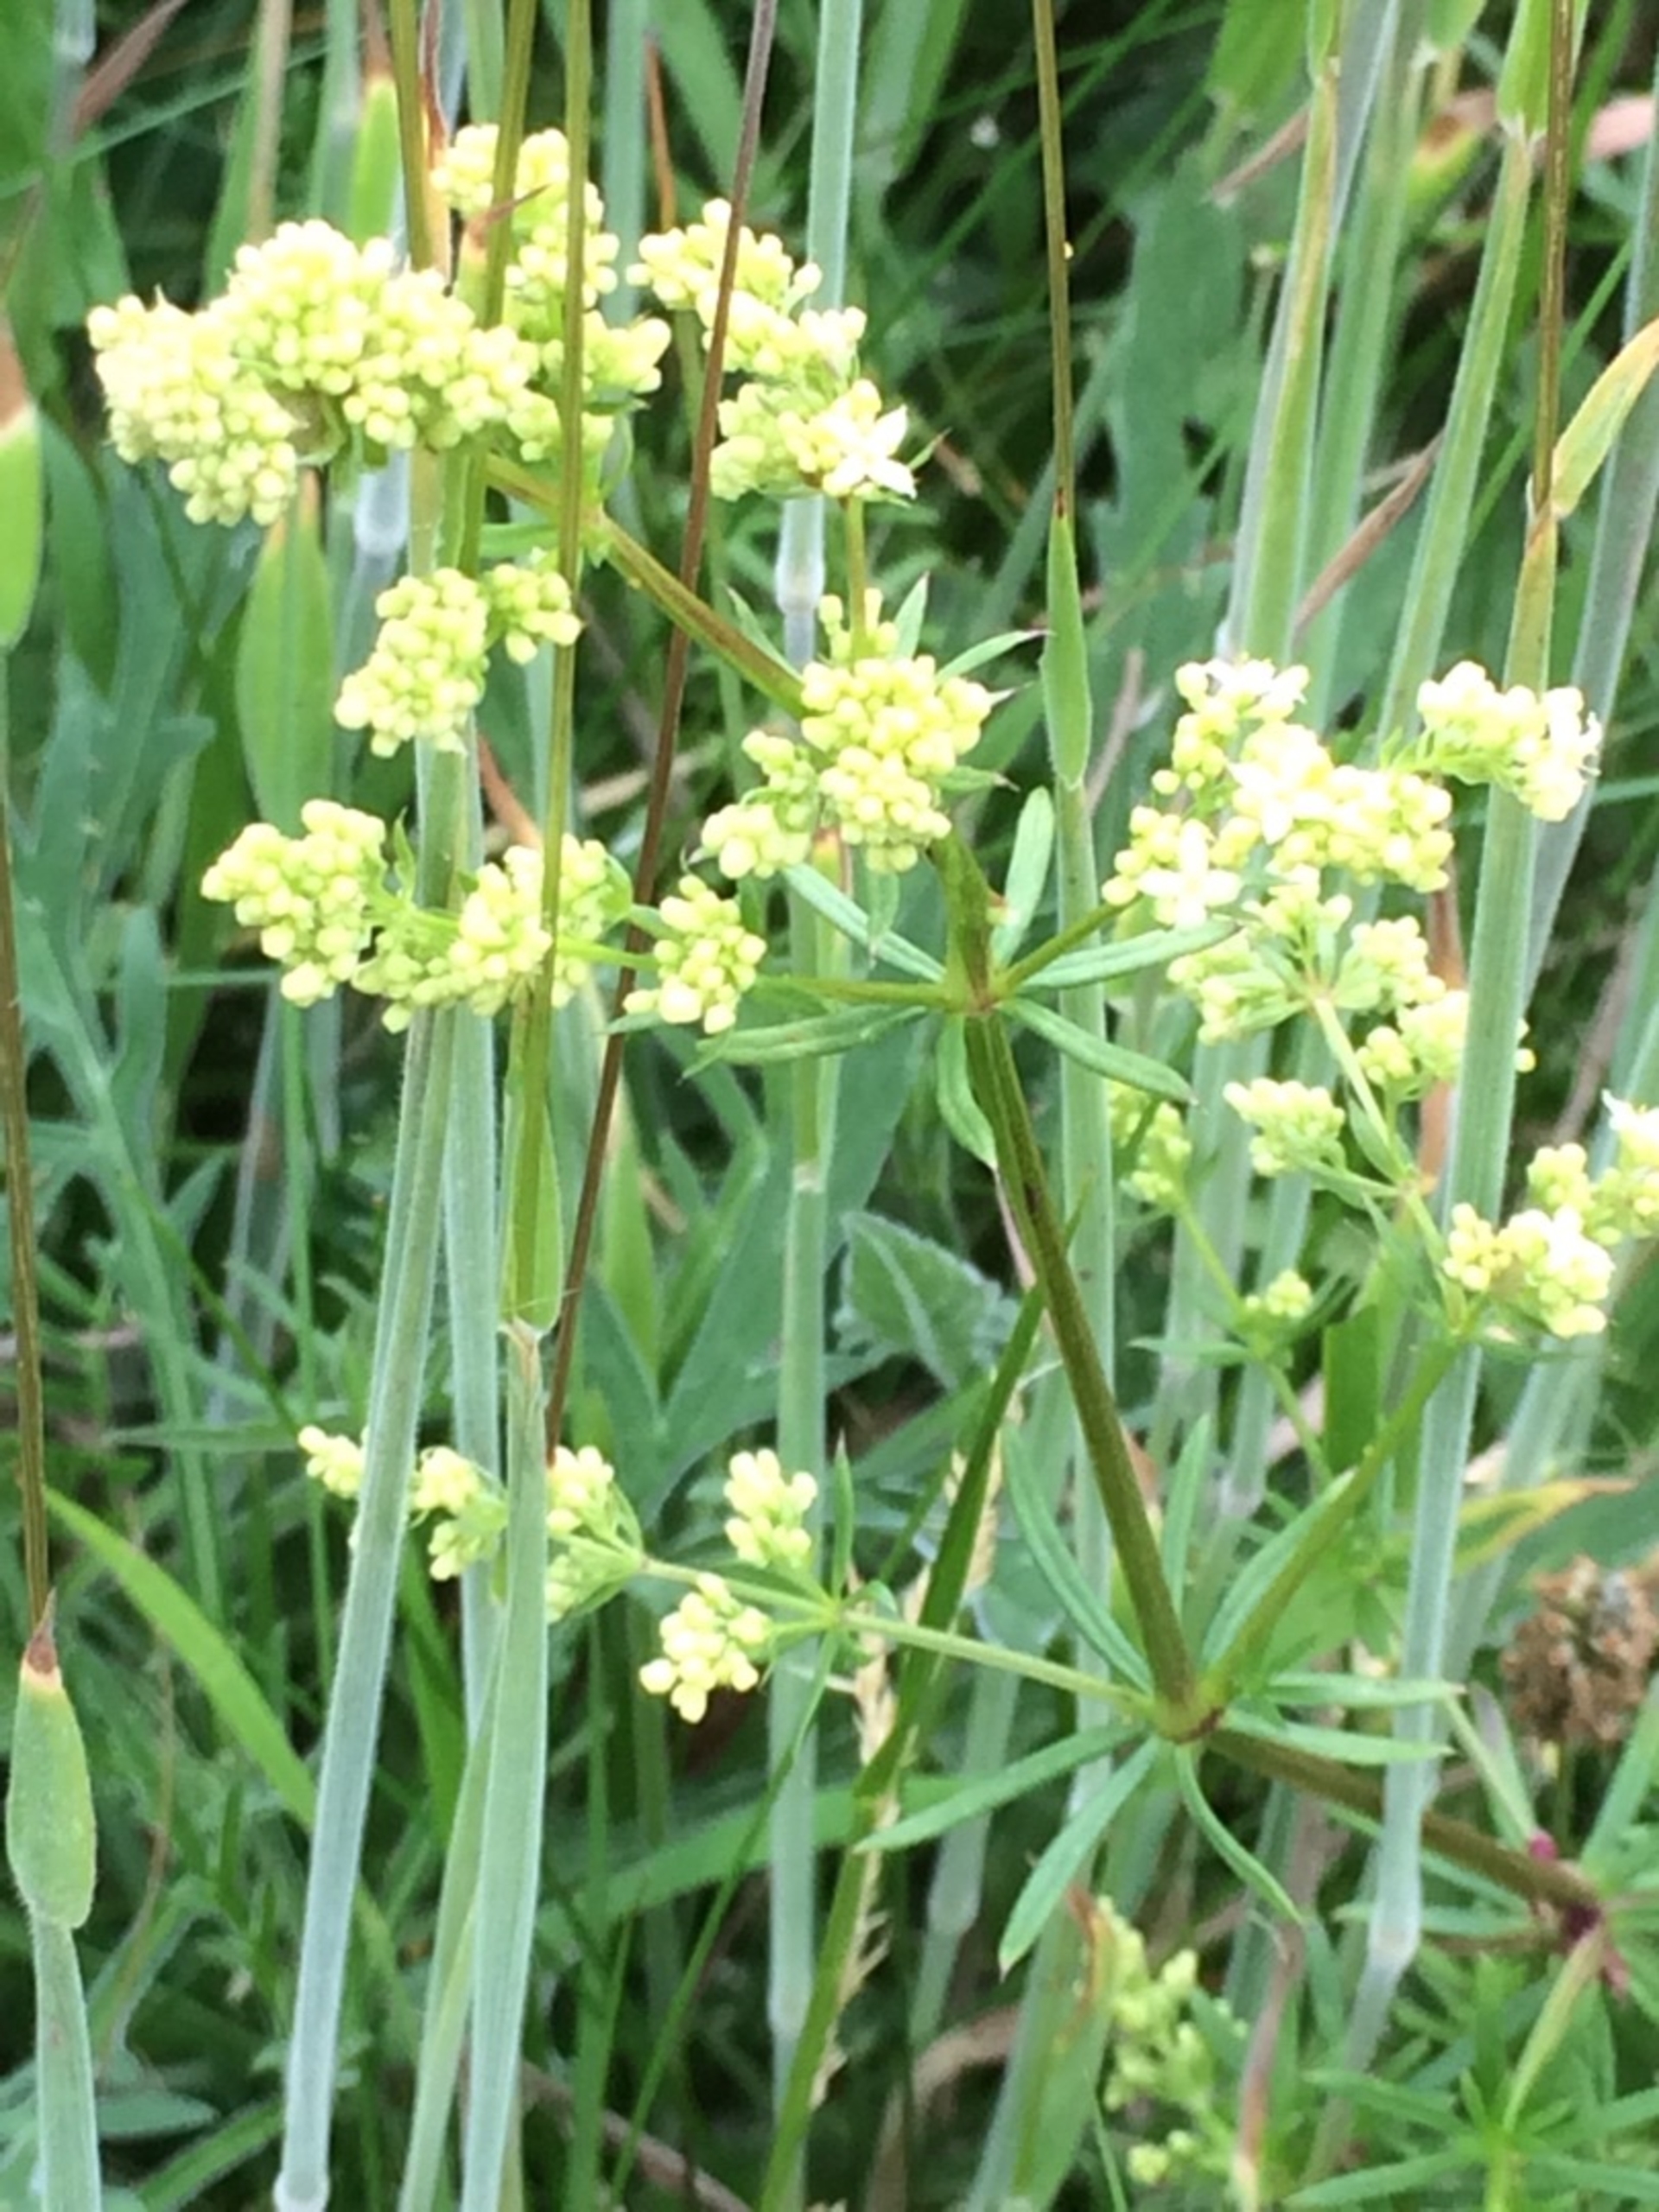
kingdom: Plantae
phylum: Tracheophyta
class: Magnoliopsida
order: Gentianales
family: Rubiaceae
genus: Galium
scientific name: Galium mollugo
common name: Hvid snerre
